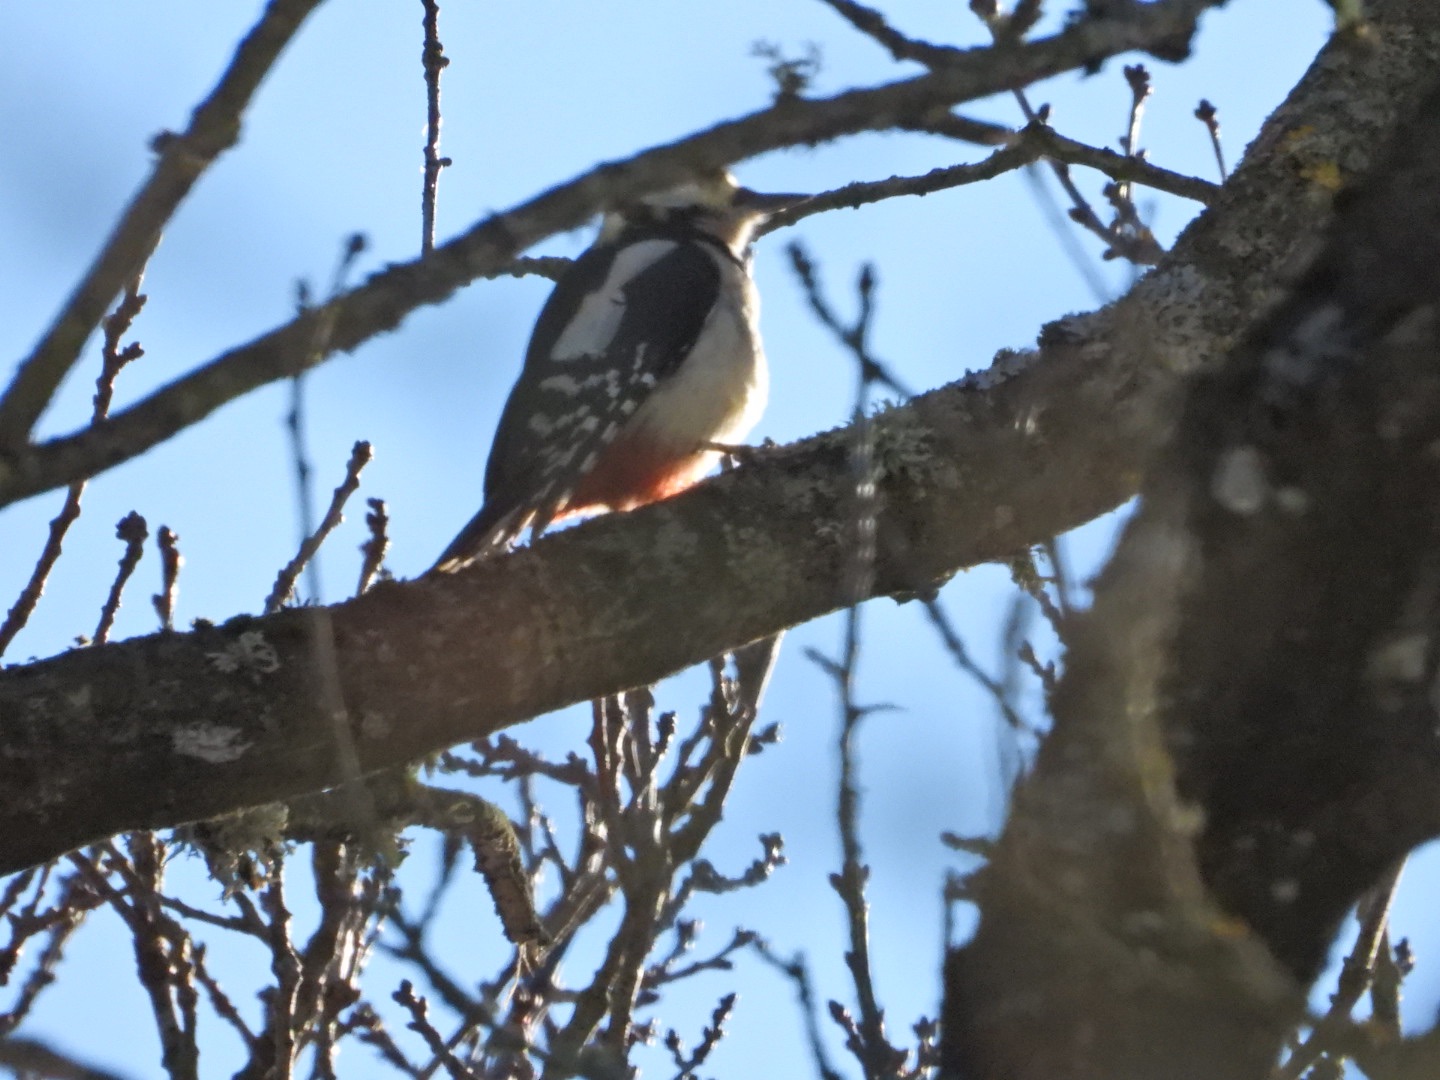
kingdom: Animalia
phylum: Chordata
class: Aves
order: Piciformes
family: Picidae
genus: Dendrocopos
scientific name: Dendrocopos major
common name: Stor flagspætte
